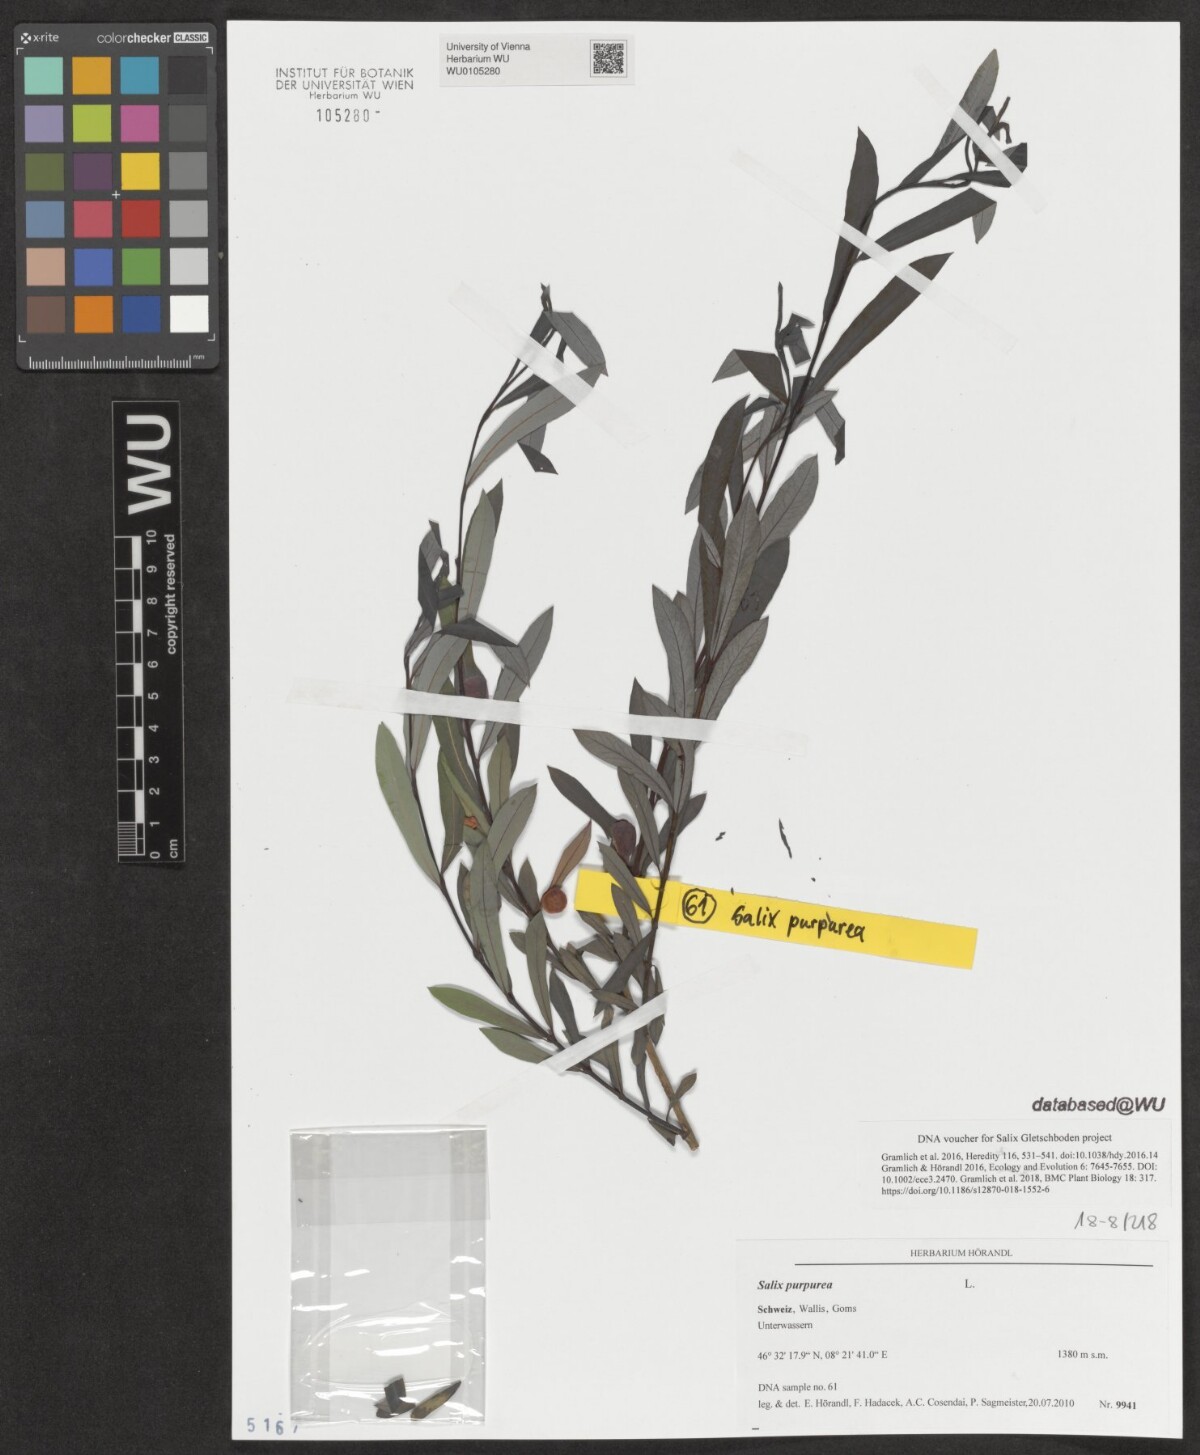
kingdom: Plantae
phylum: Tracheophyta
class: Magnoliopsida
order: Malpighiales
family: Salicaceae
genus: Salix
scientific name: Salix purpurea
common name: Purple willow
